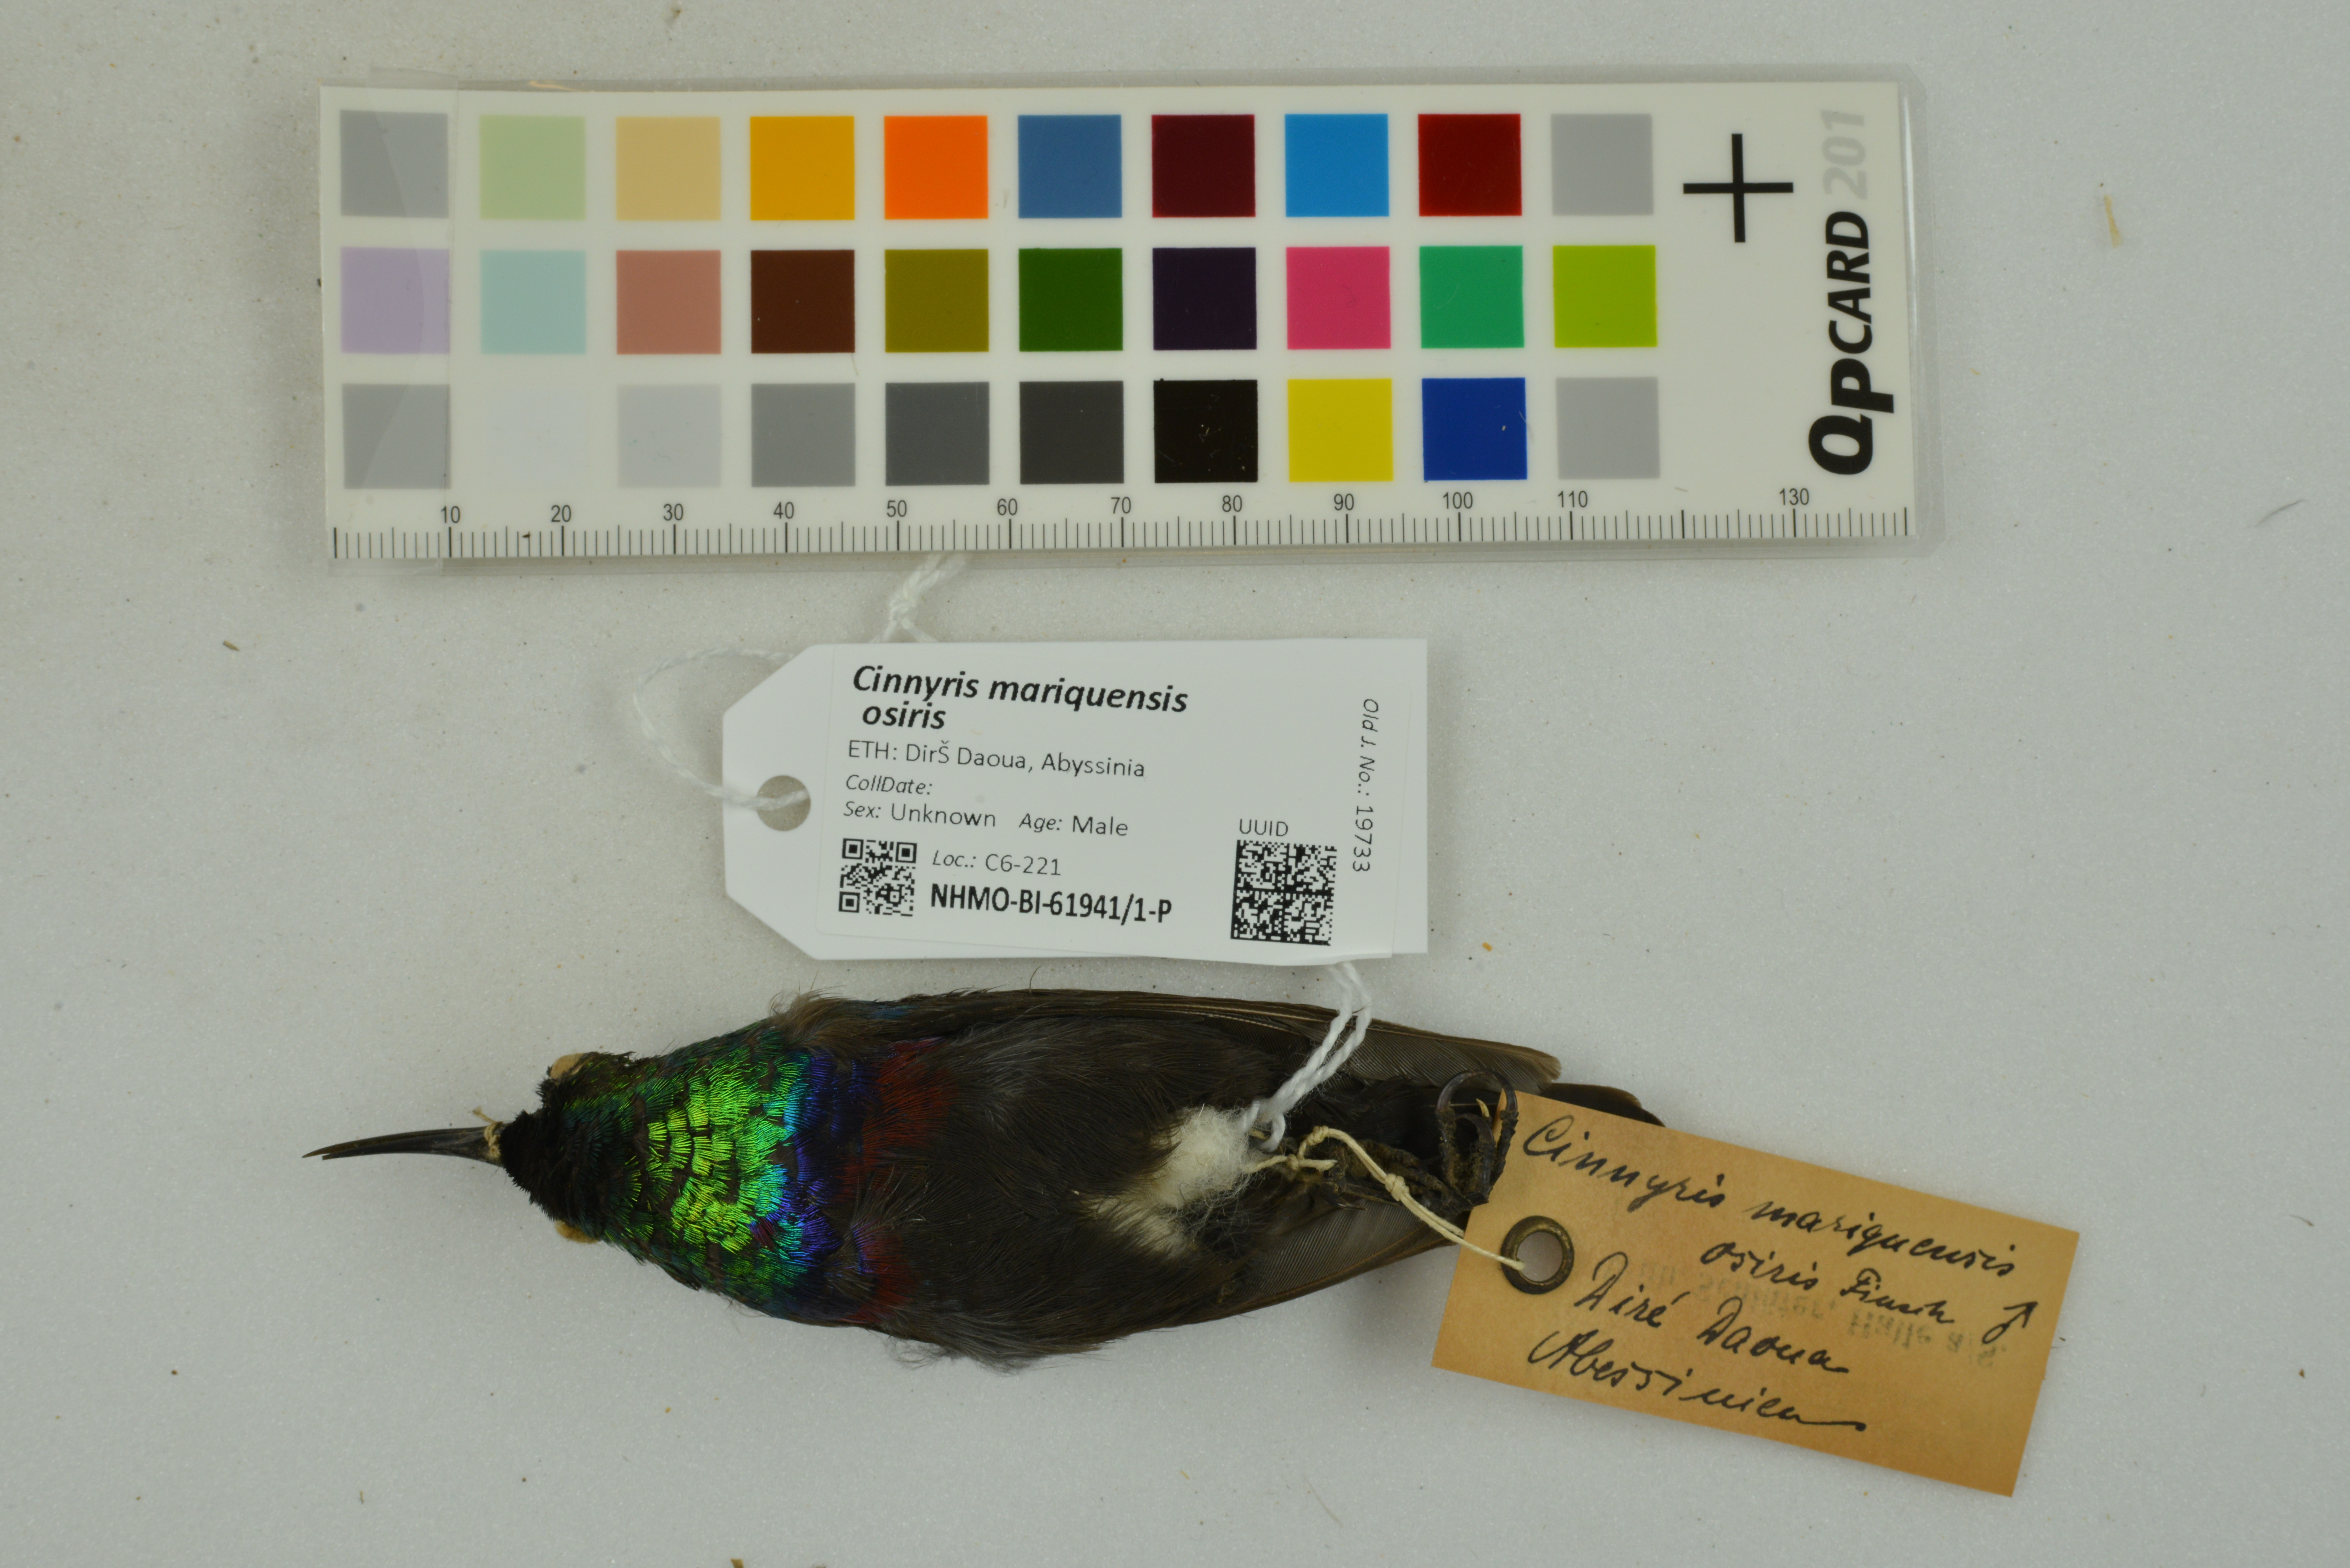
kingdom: Animalia
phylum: Chordata
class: Aves
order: Passeriformes
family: Nectariniidae
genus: Cinnyris
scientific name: Cinnyris mariquensis
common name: Marico sunbird
